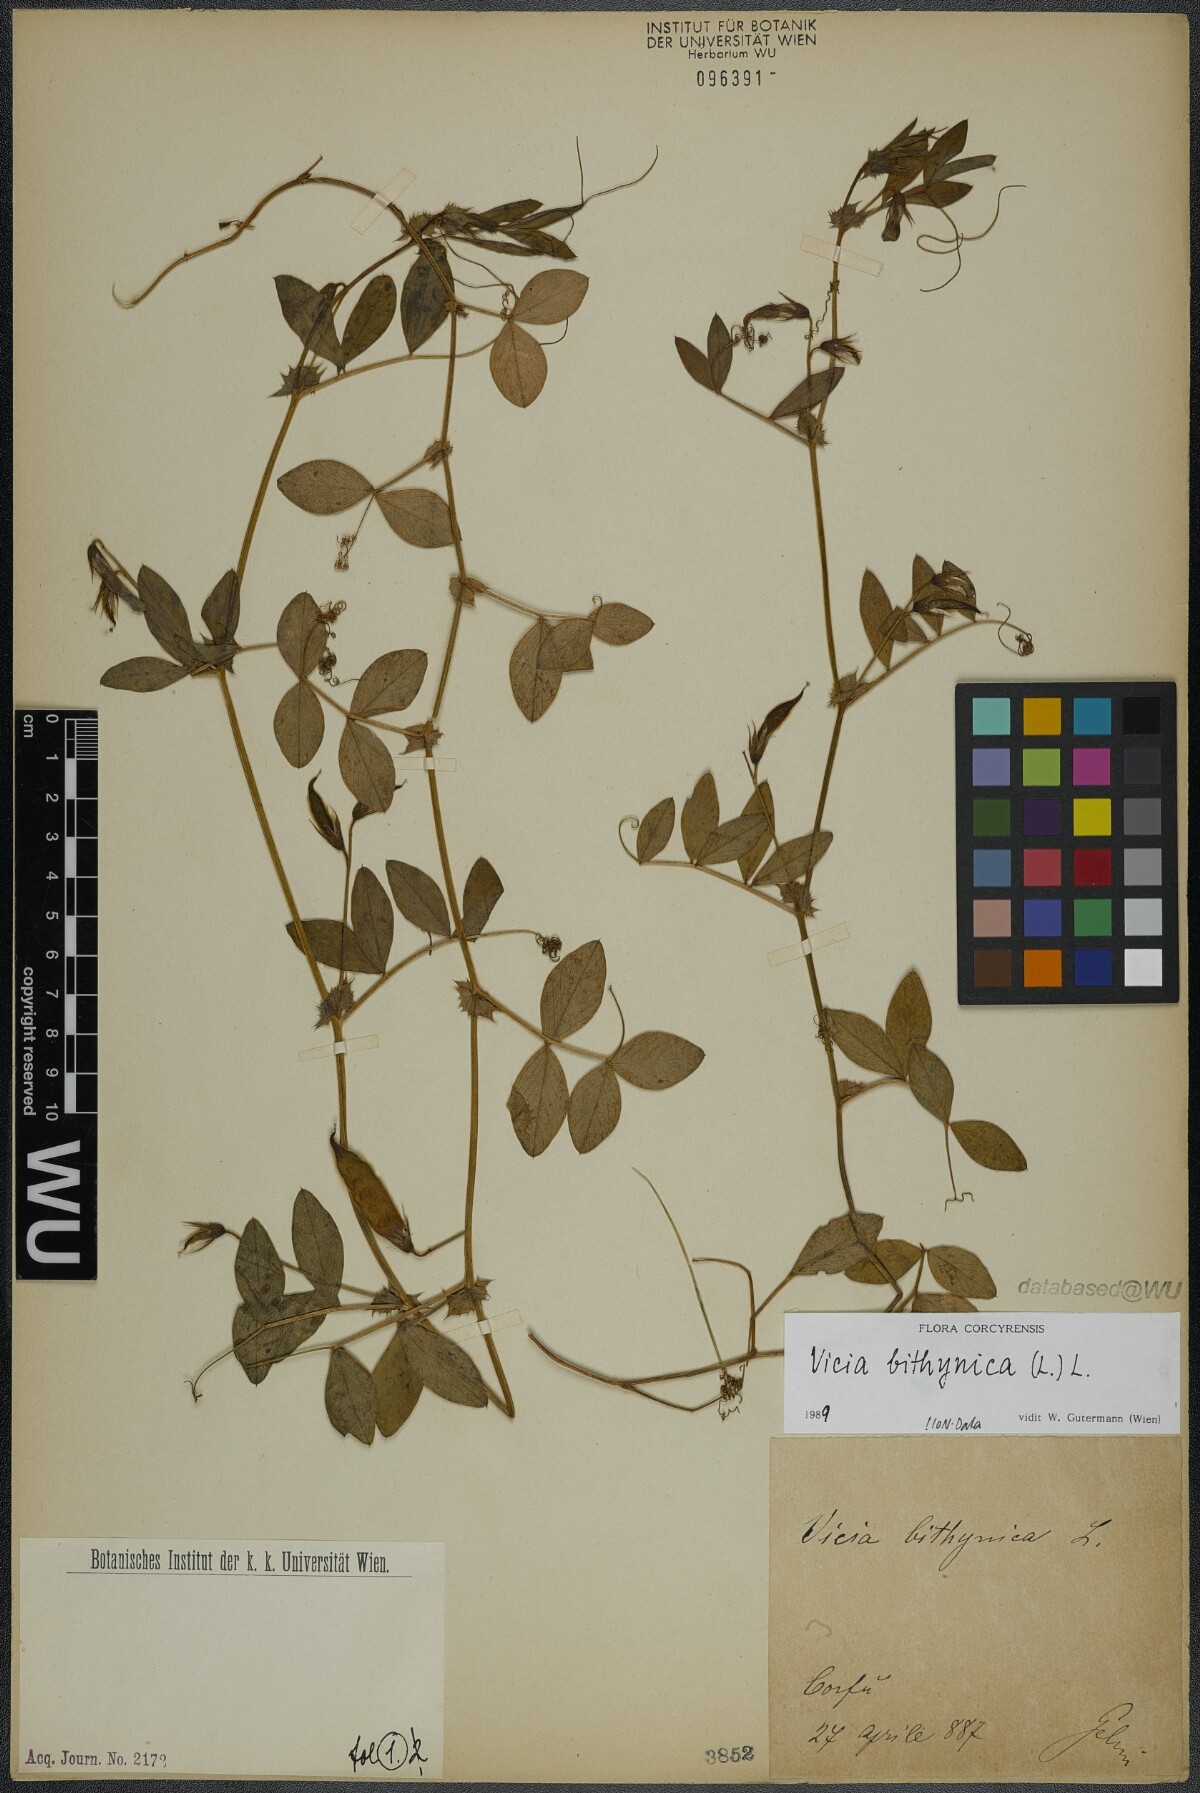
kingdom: Plantae
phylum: Tracheophyta
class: Magnoliopsida
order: Fabales
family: Fabaceae
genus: Vicia
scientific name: Vicia bithynica
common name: Bithynian vetch
